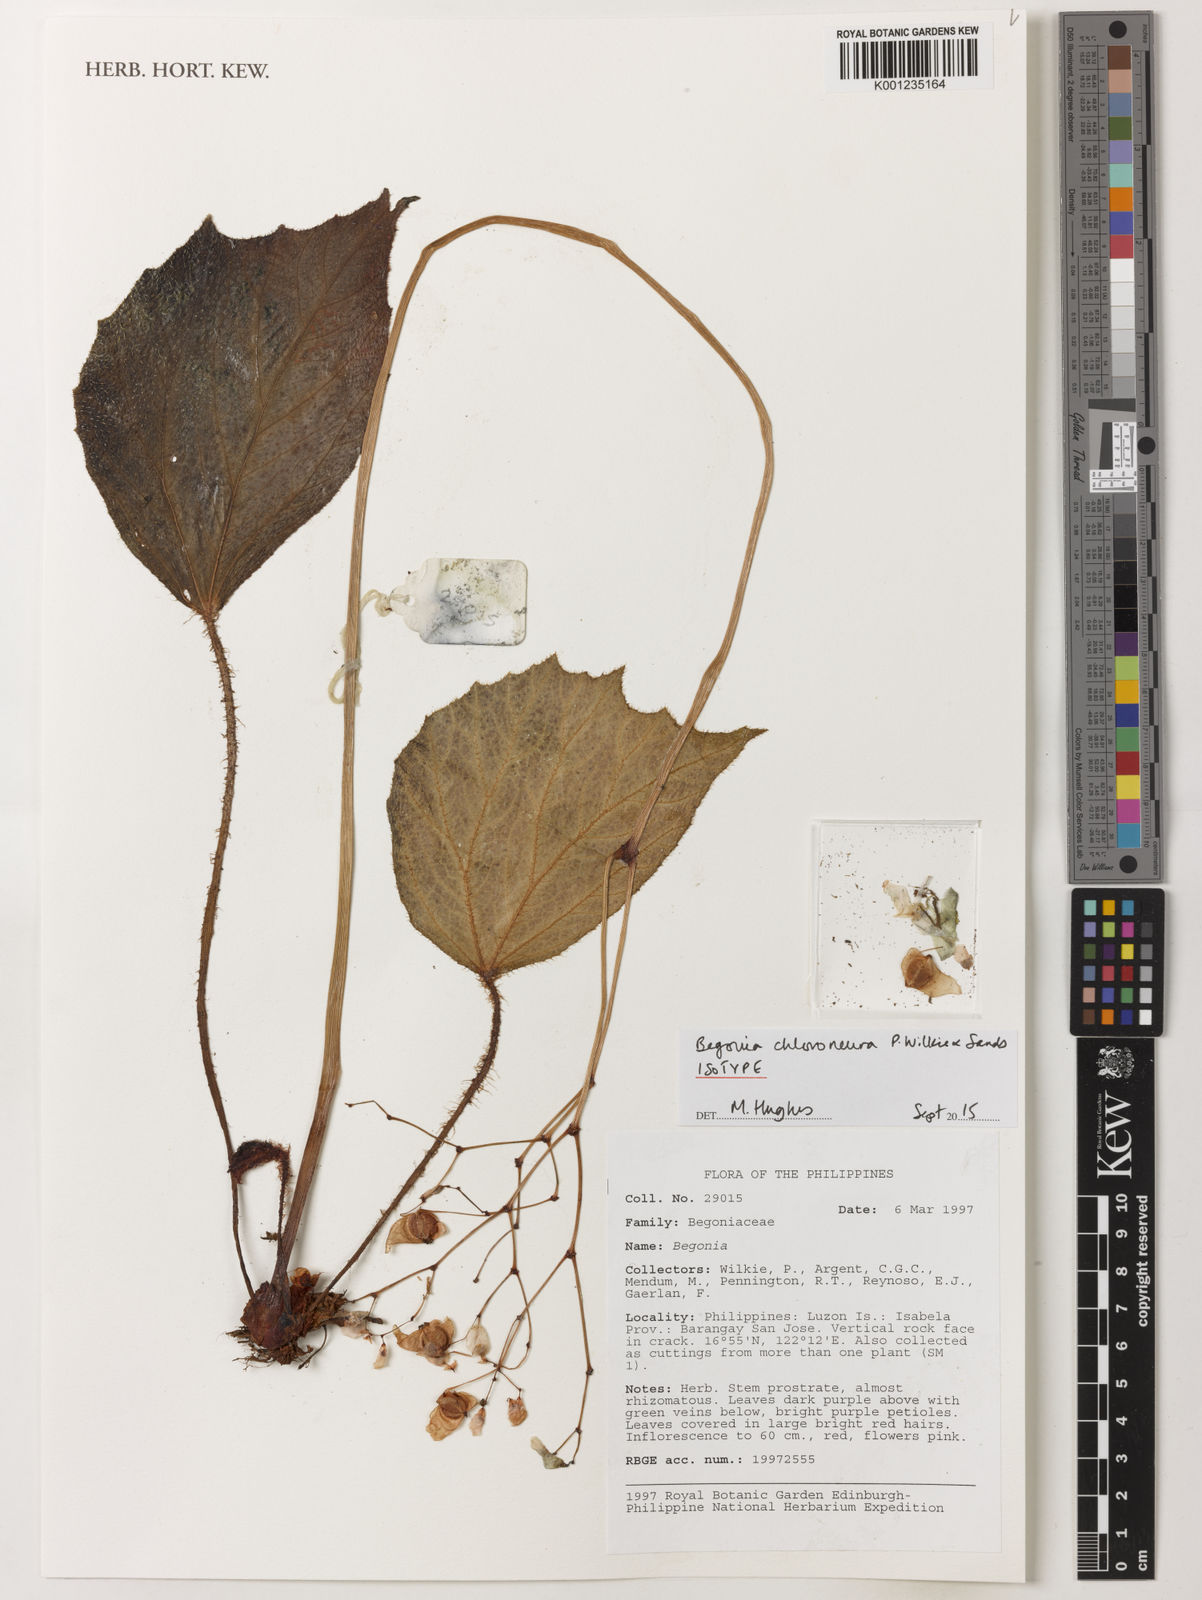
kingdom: Plantae
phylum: Tracheophyta
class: Magnoliopsida
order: Cucurbitales
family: Begoniaceae
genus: Begonia
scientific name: Begonia chloroneura
